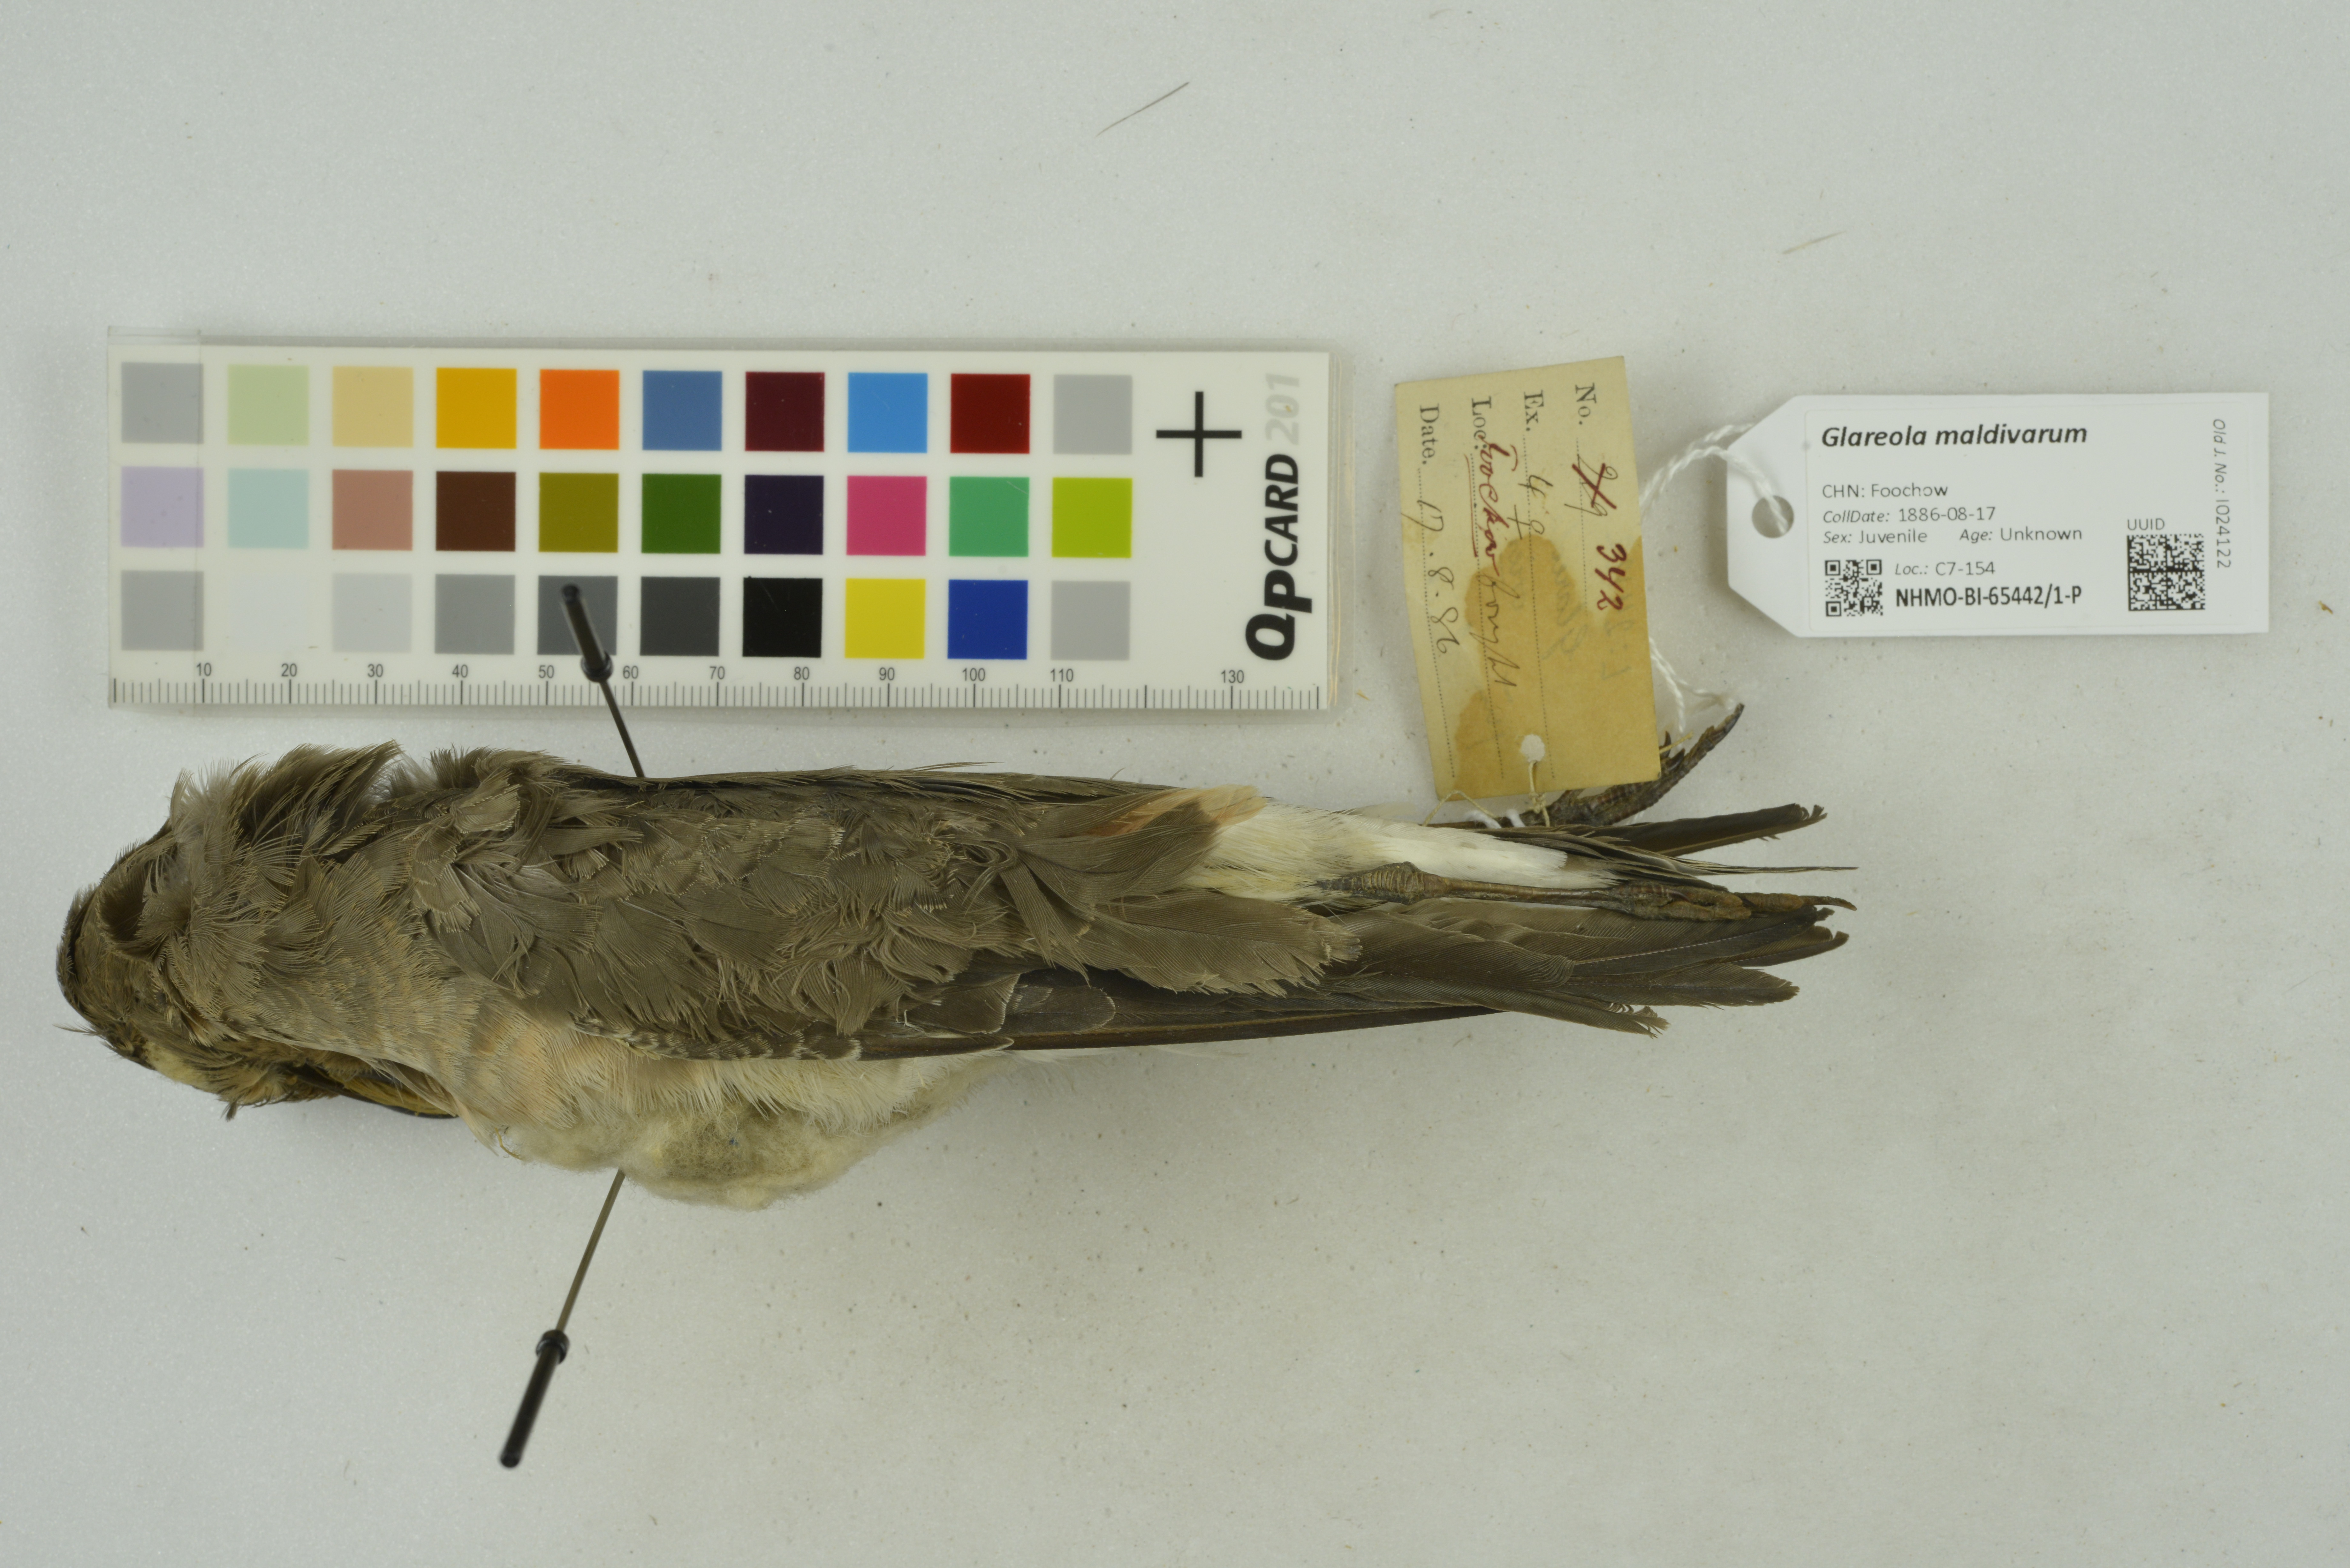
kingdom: Animalia
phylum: Chordata
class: Aves
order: Charadriiformes
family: Glareolidae
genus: Glareola
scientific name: Glareola maldivarum
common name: Oriental pratincole
